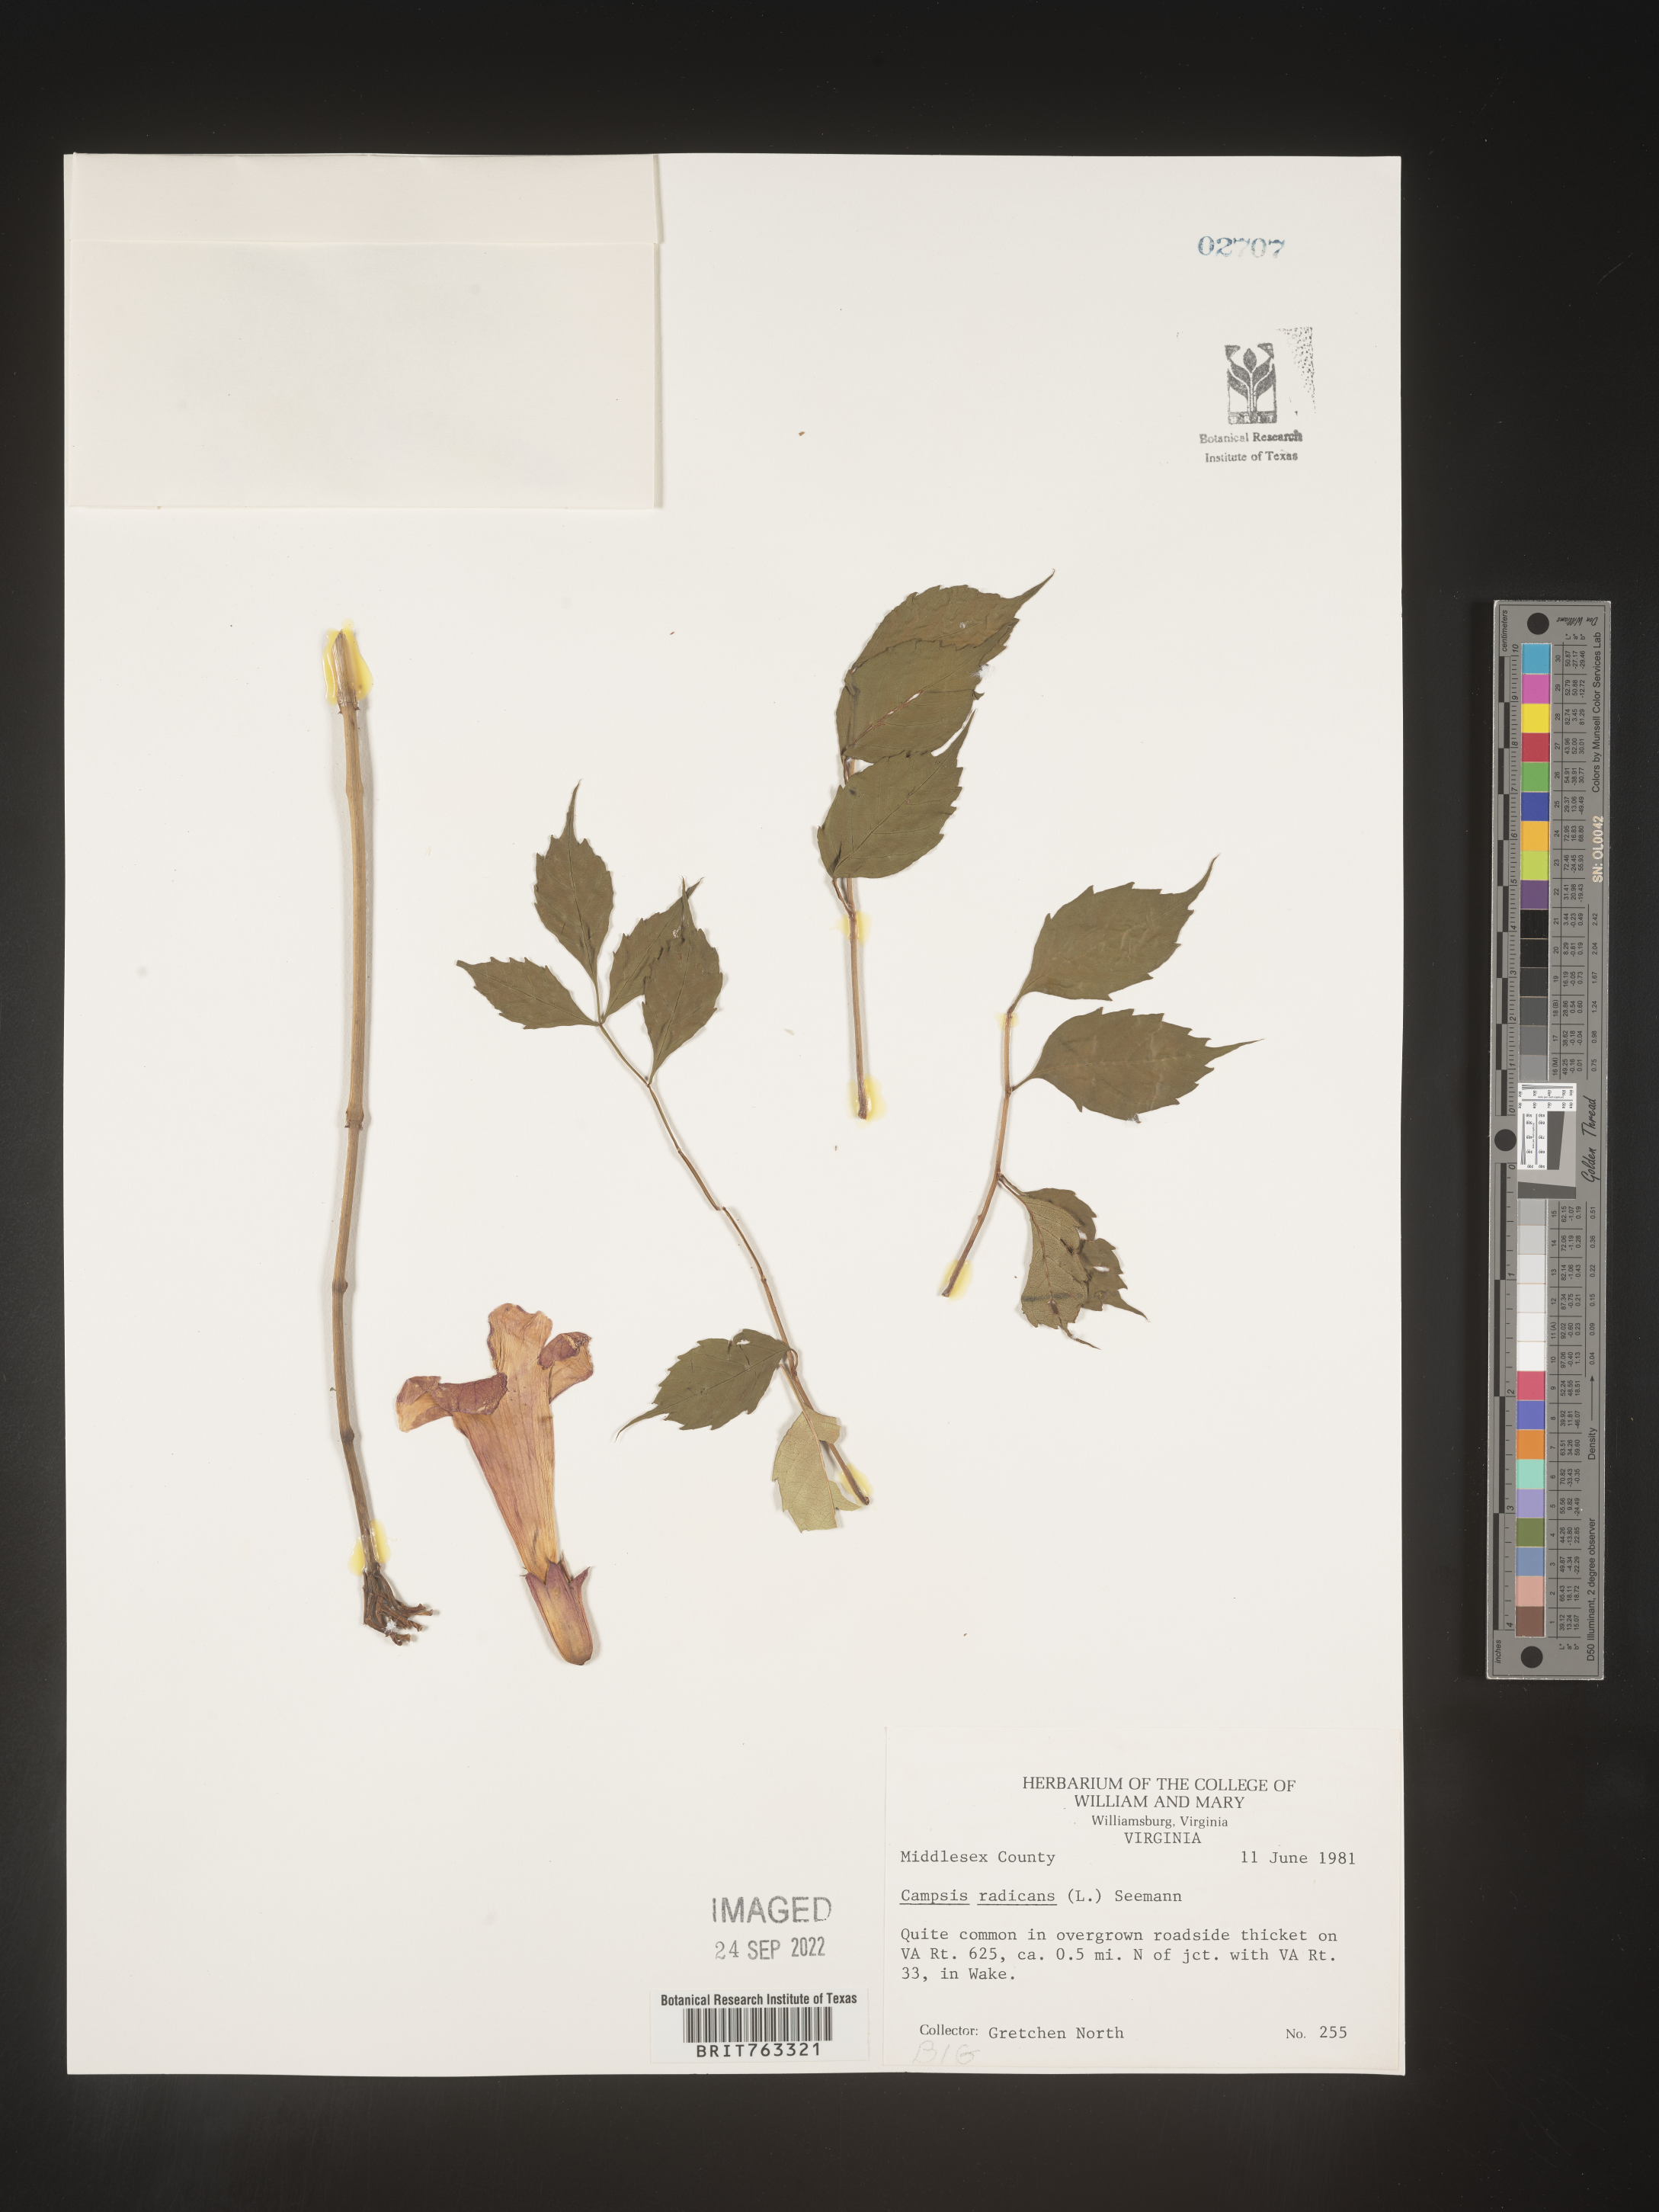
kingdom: Plantae
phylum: Tracheophyta
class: Magnoliopsida
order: Lamiales
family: Bignoniaceae
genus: Campsis
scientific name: Campsis radicans
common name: Trumpet-creeper
